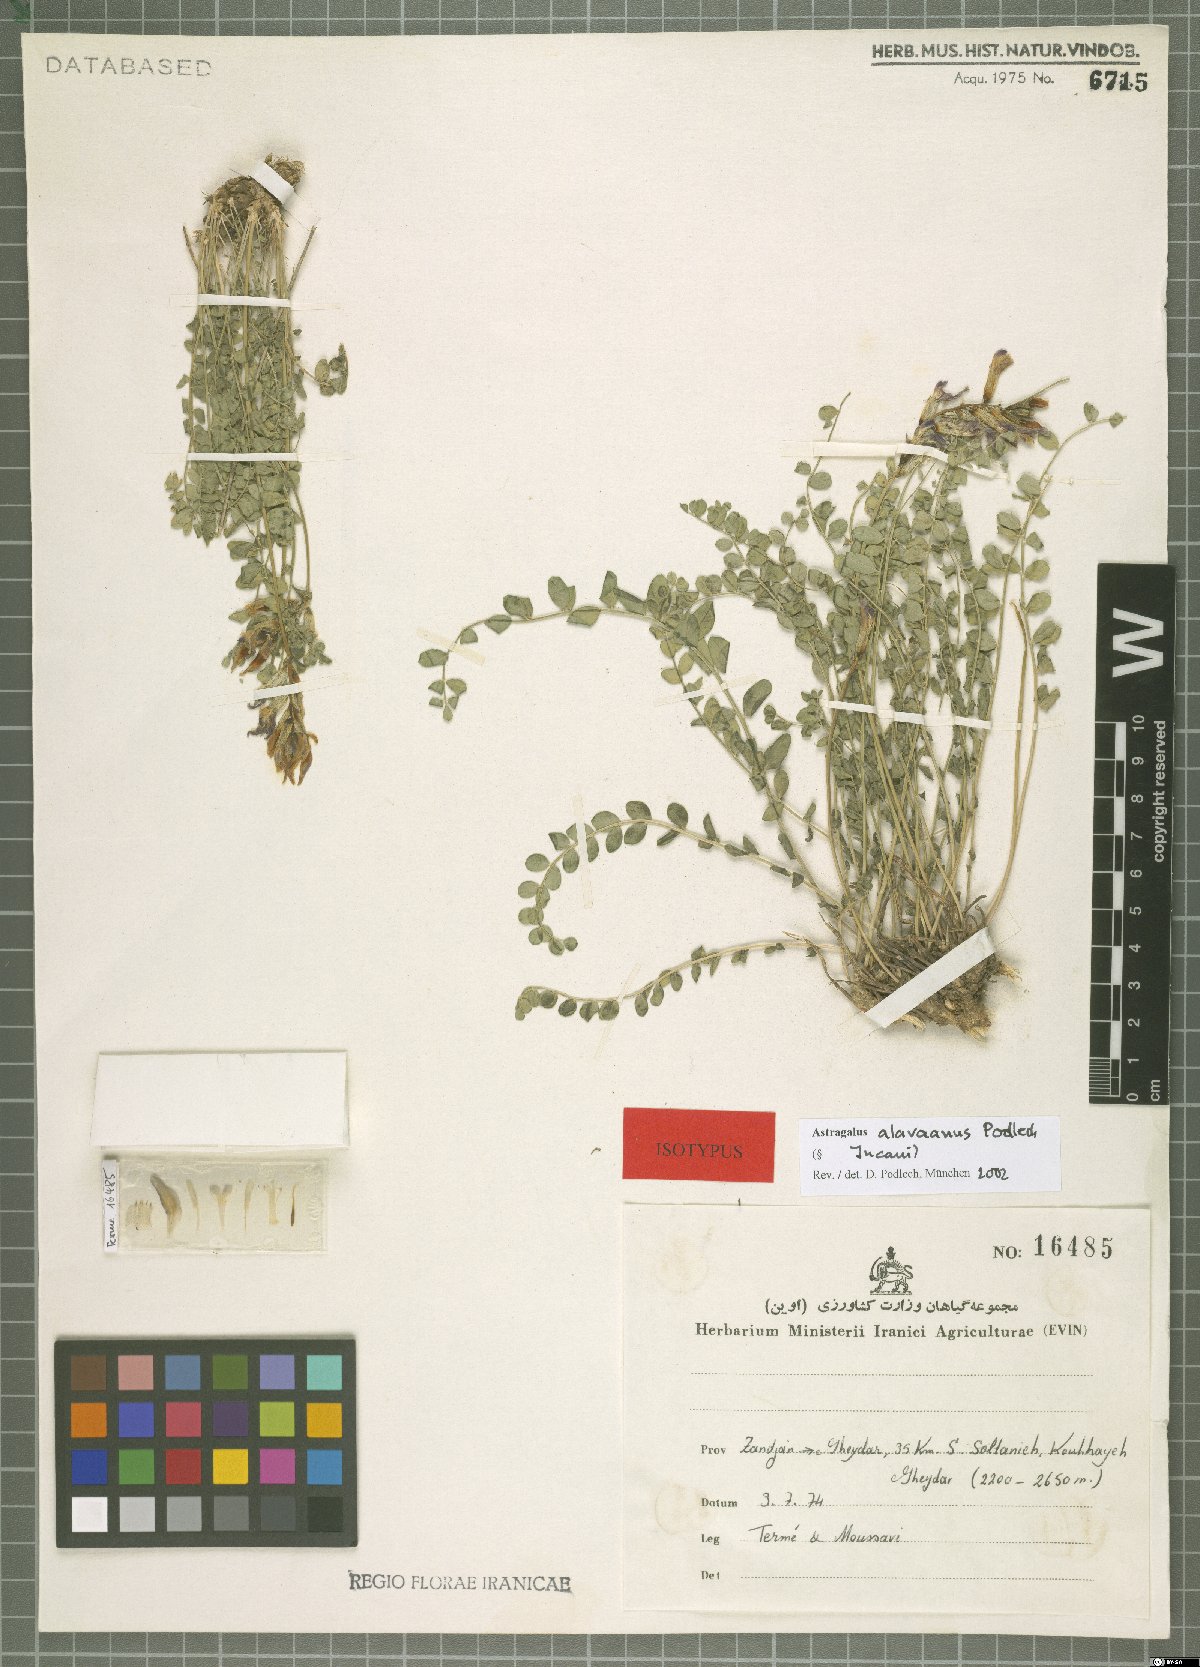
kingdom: Plantae
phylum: Tracheophyta
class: Magnoliopsida
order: Fabales
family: Fabaceae
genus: Astragalus
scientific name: Astragalus alavaanus
